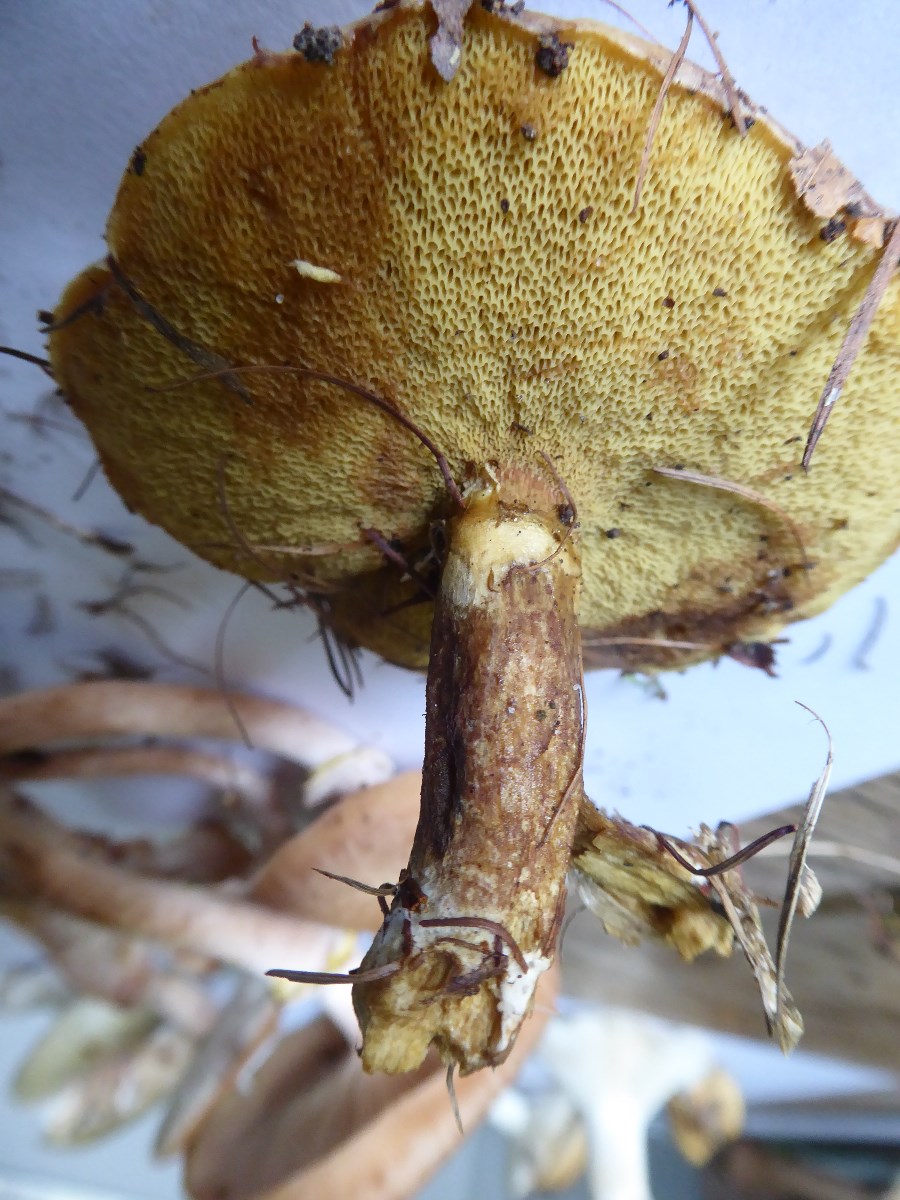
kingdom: Fungi
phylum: Basidiomycota
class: Agaricomycetes
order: Boletales
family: Suillaceae
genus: Suillus
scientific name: Suillus grevillei
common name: lærke-slimrørhat
